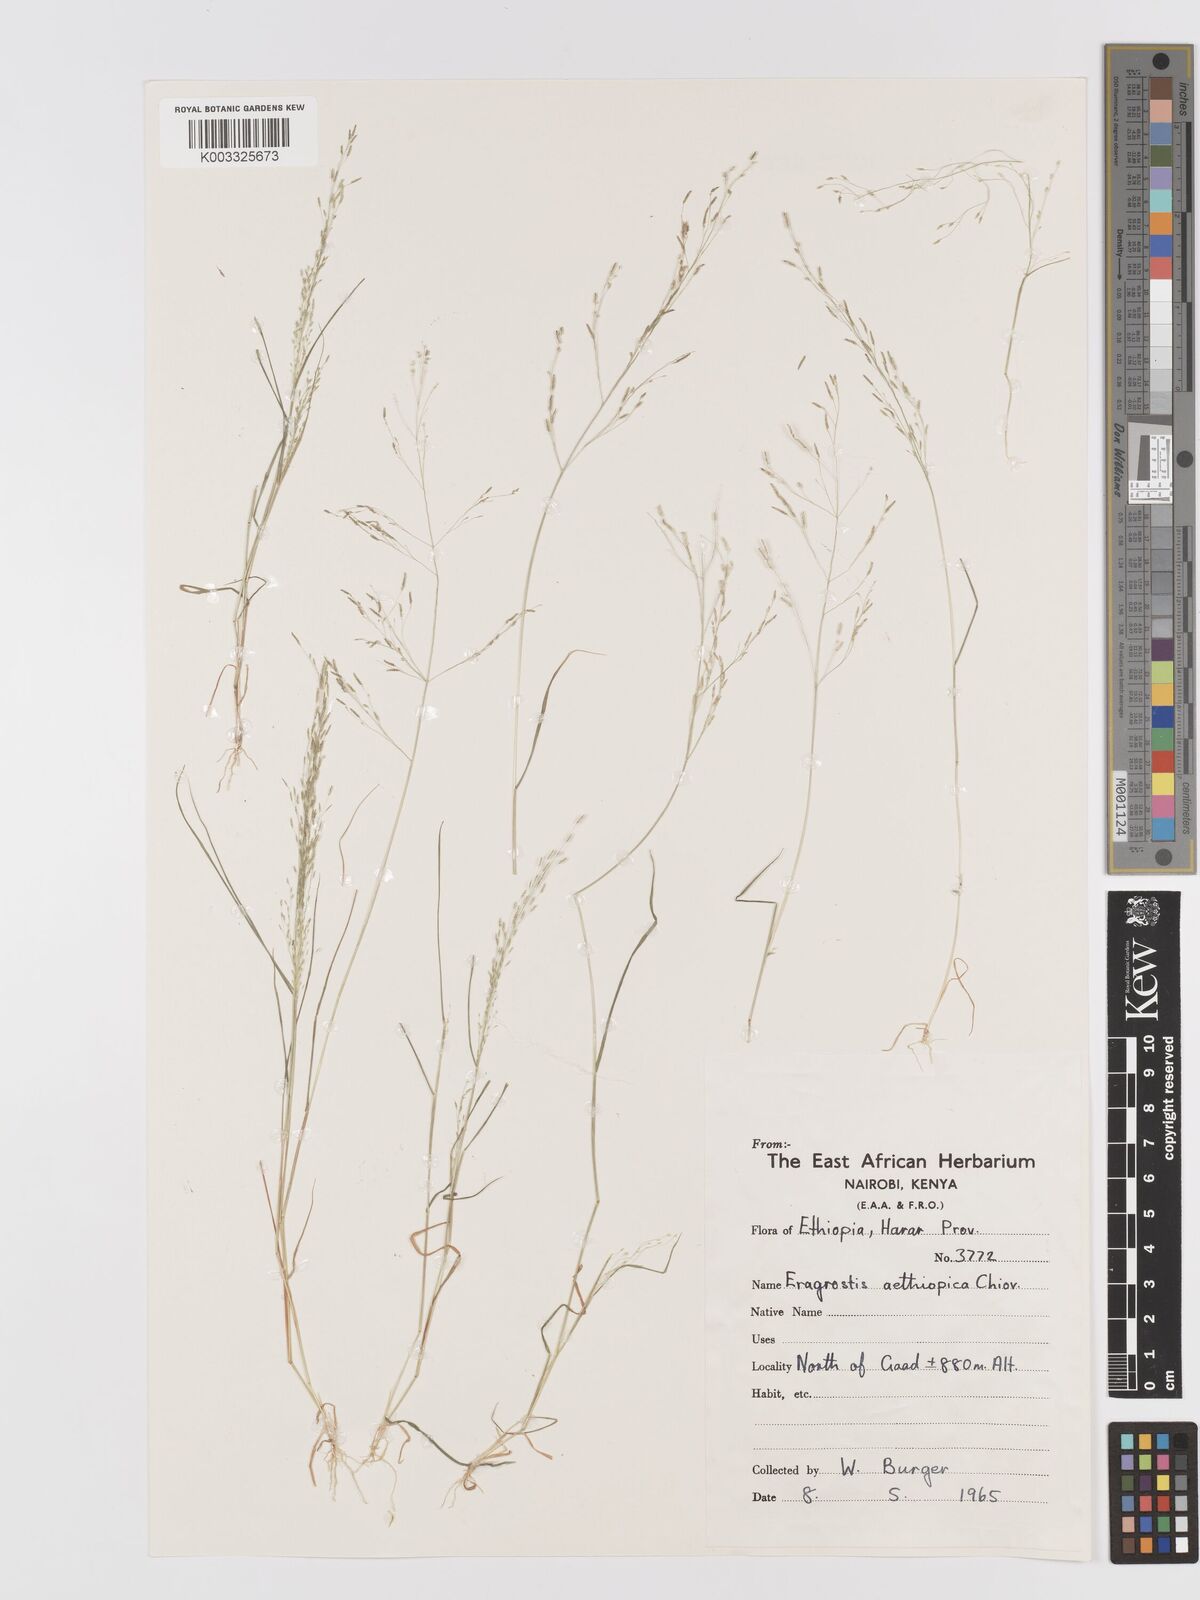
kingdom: Plantae
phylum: Tracheophyta
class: Liliopsida
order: Poales
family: Poaceae
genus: Eragrostis
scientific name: Eragrostis aethiopica
